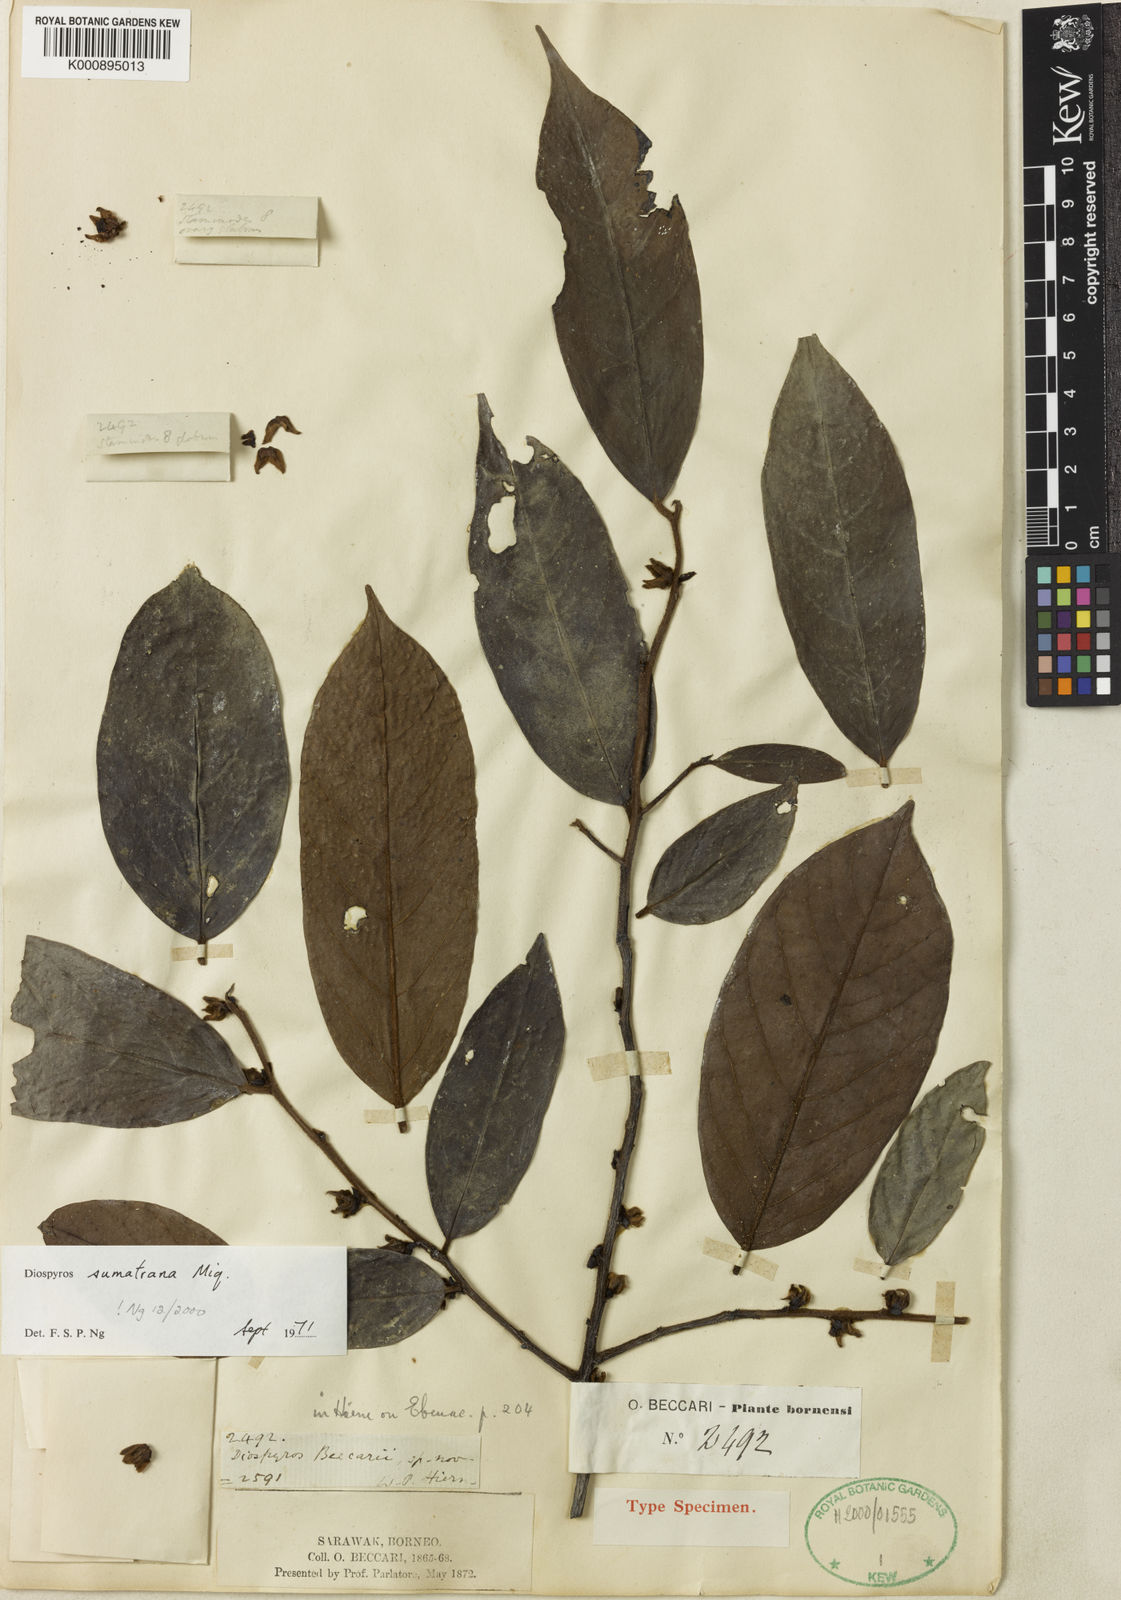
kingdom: Plantae
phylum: Tracheophyta
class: Magnoliopsida
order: Ericales
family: Ebenaceae
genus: Diospyros
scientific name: Diospyros sumatrana
